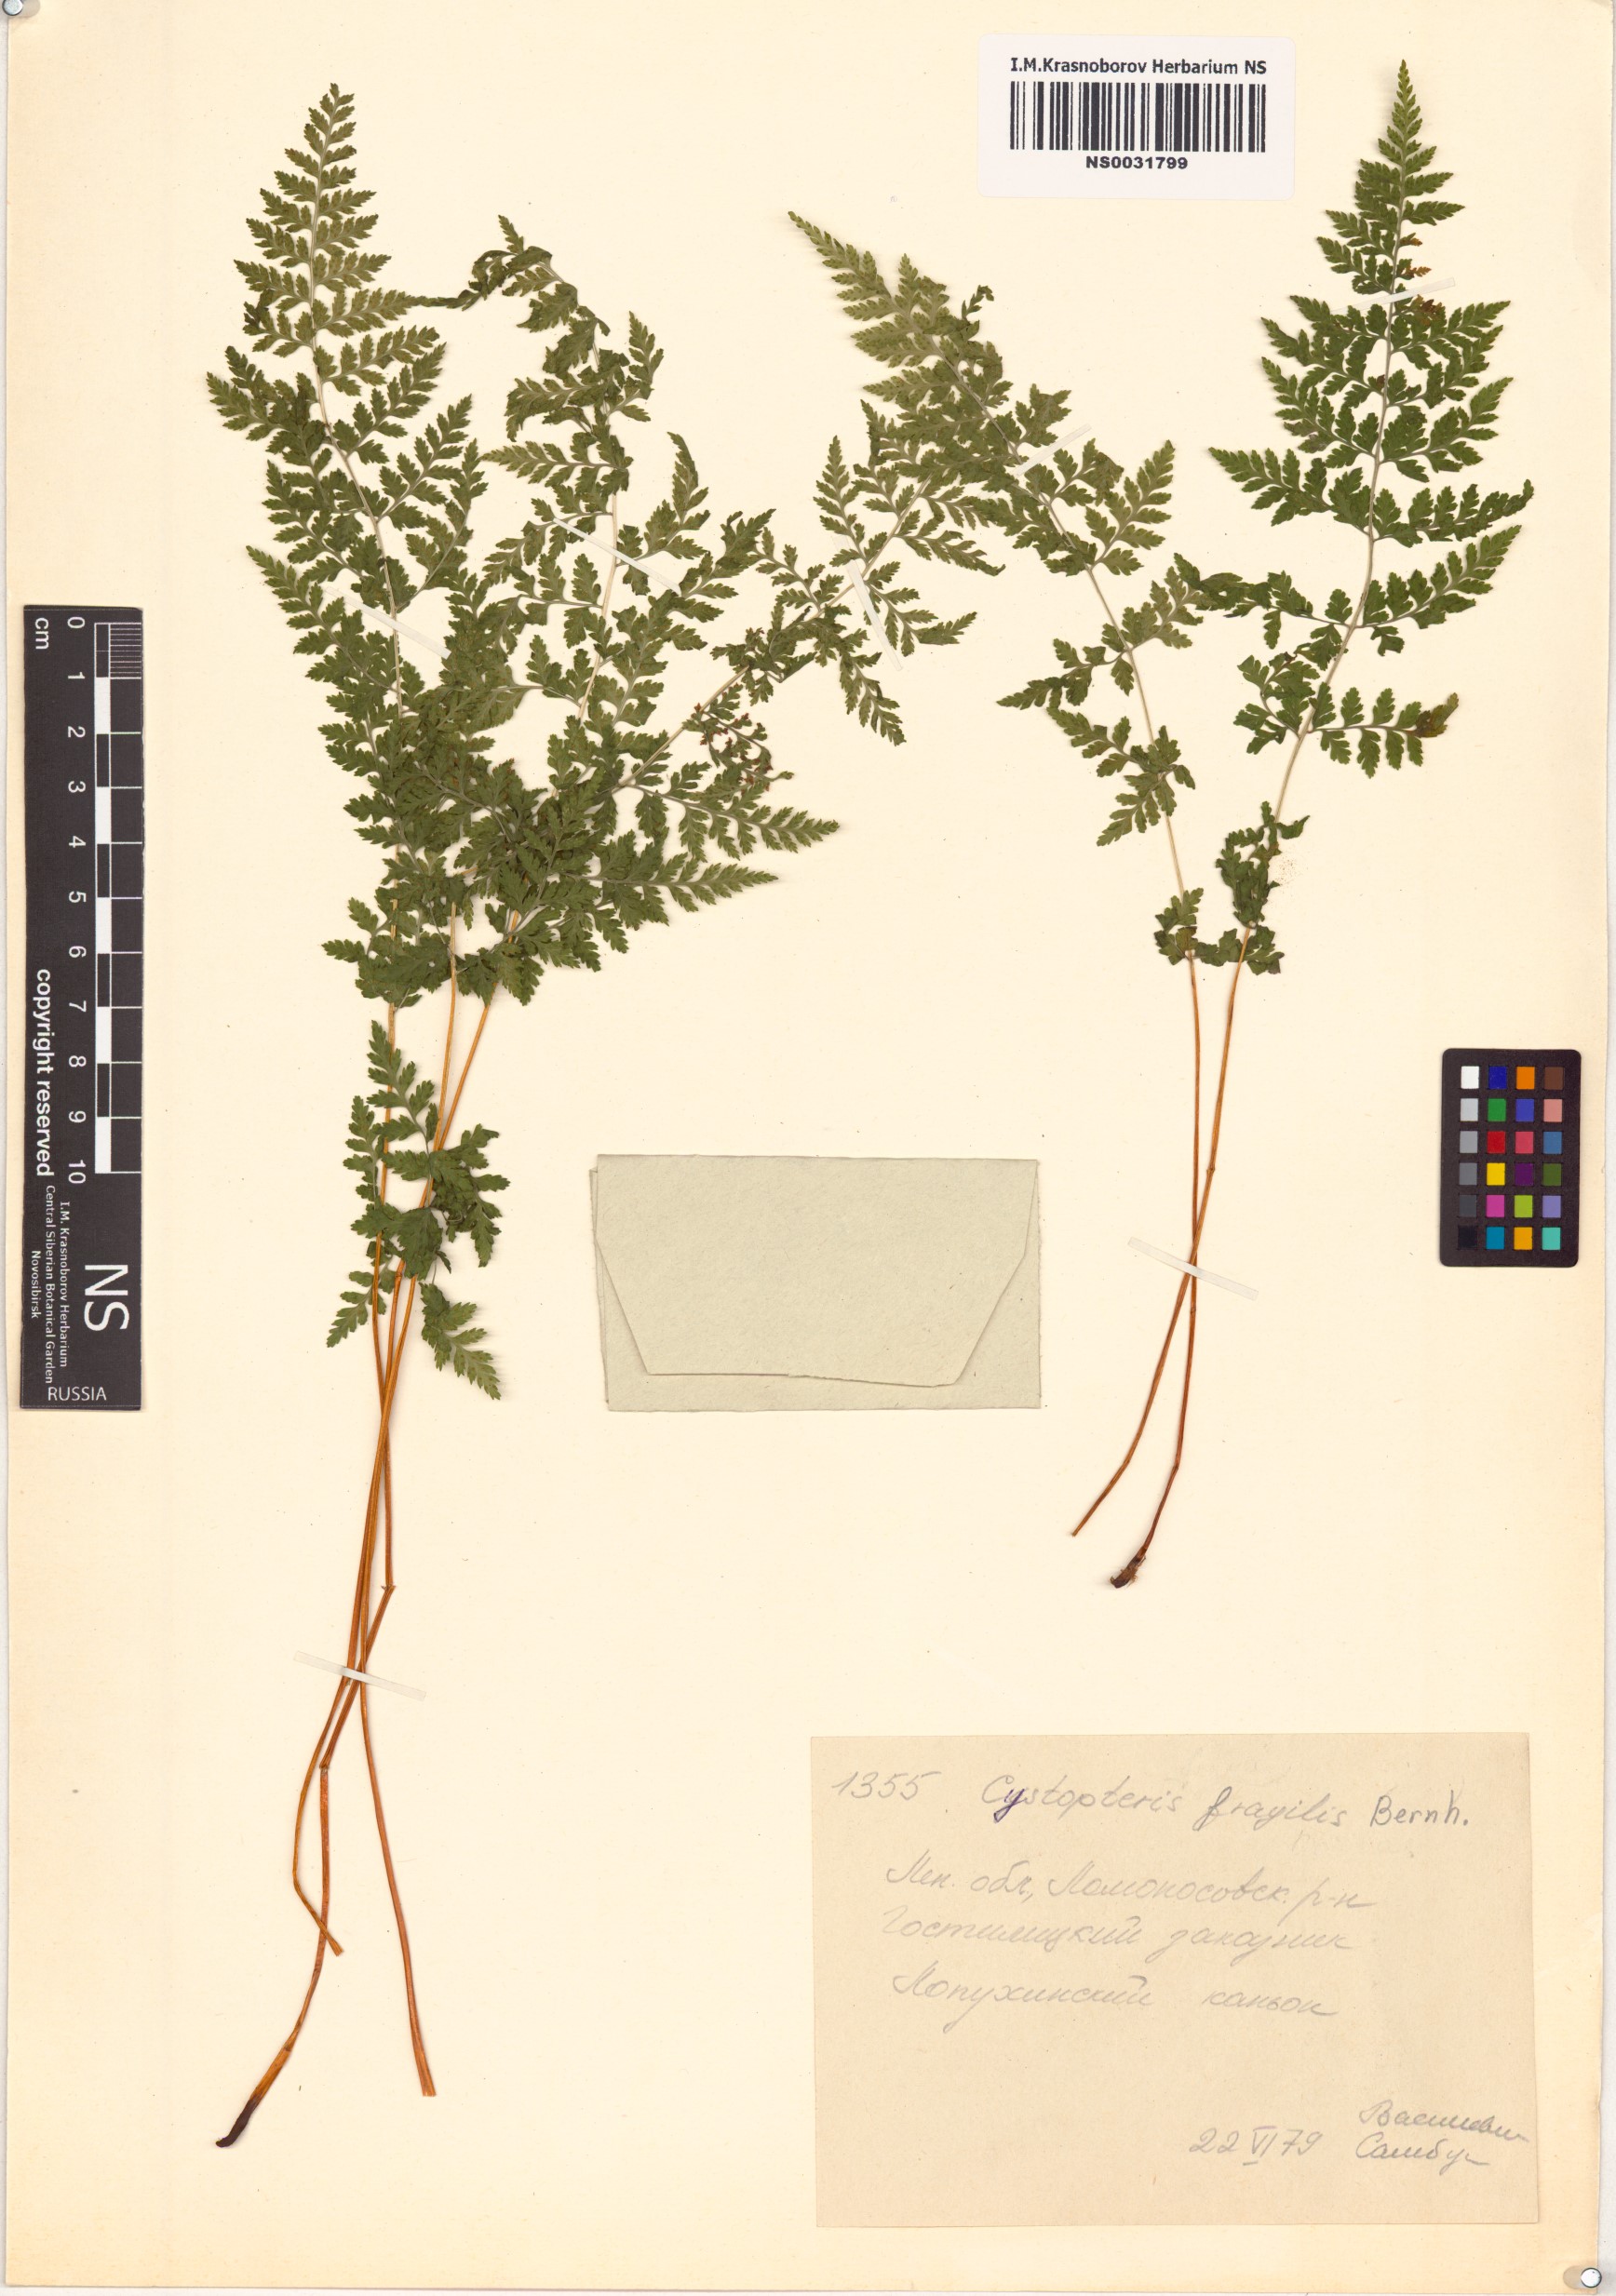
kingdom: Plantae
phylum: Tracheophyta
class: Polypodiopsida
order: Polypodiales
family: Cystopteridaceae
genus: Cystopteris
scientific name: Cystopteris fragilis
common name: Brittle bladder fern
